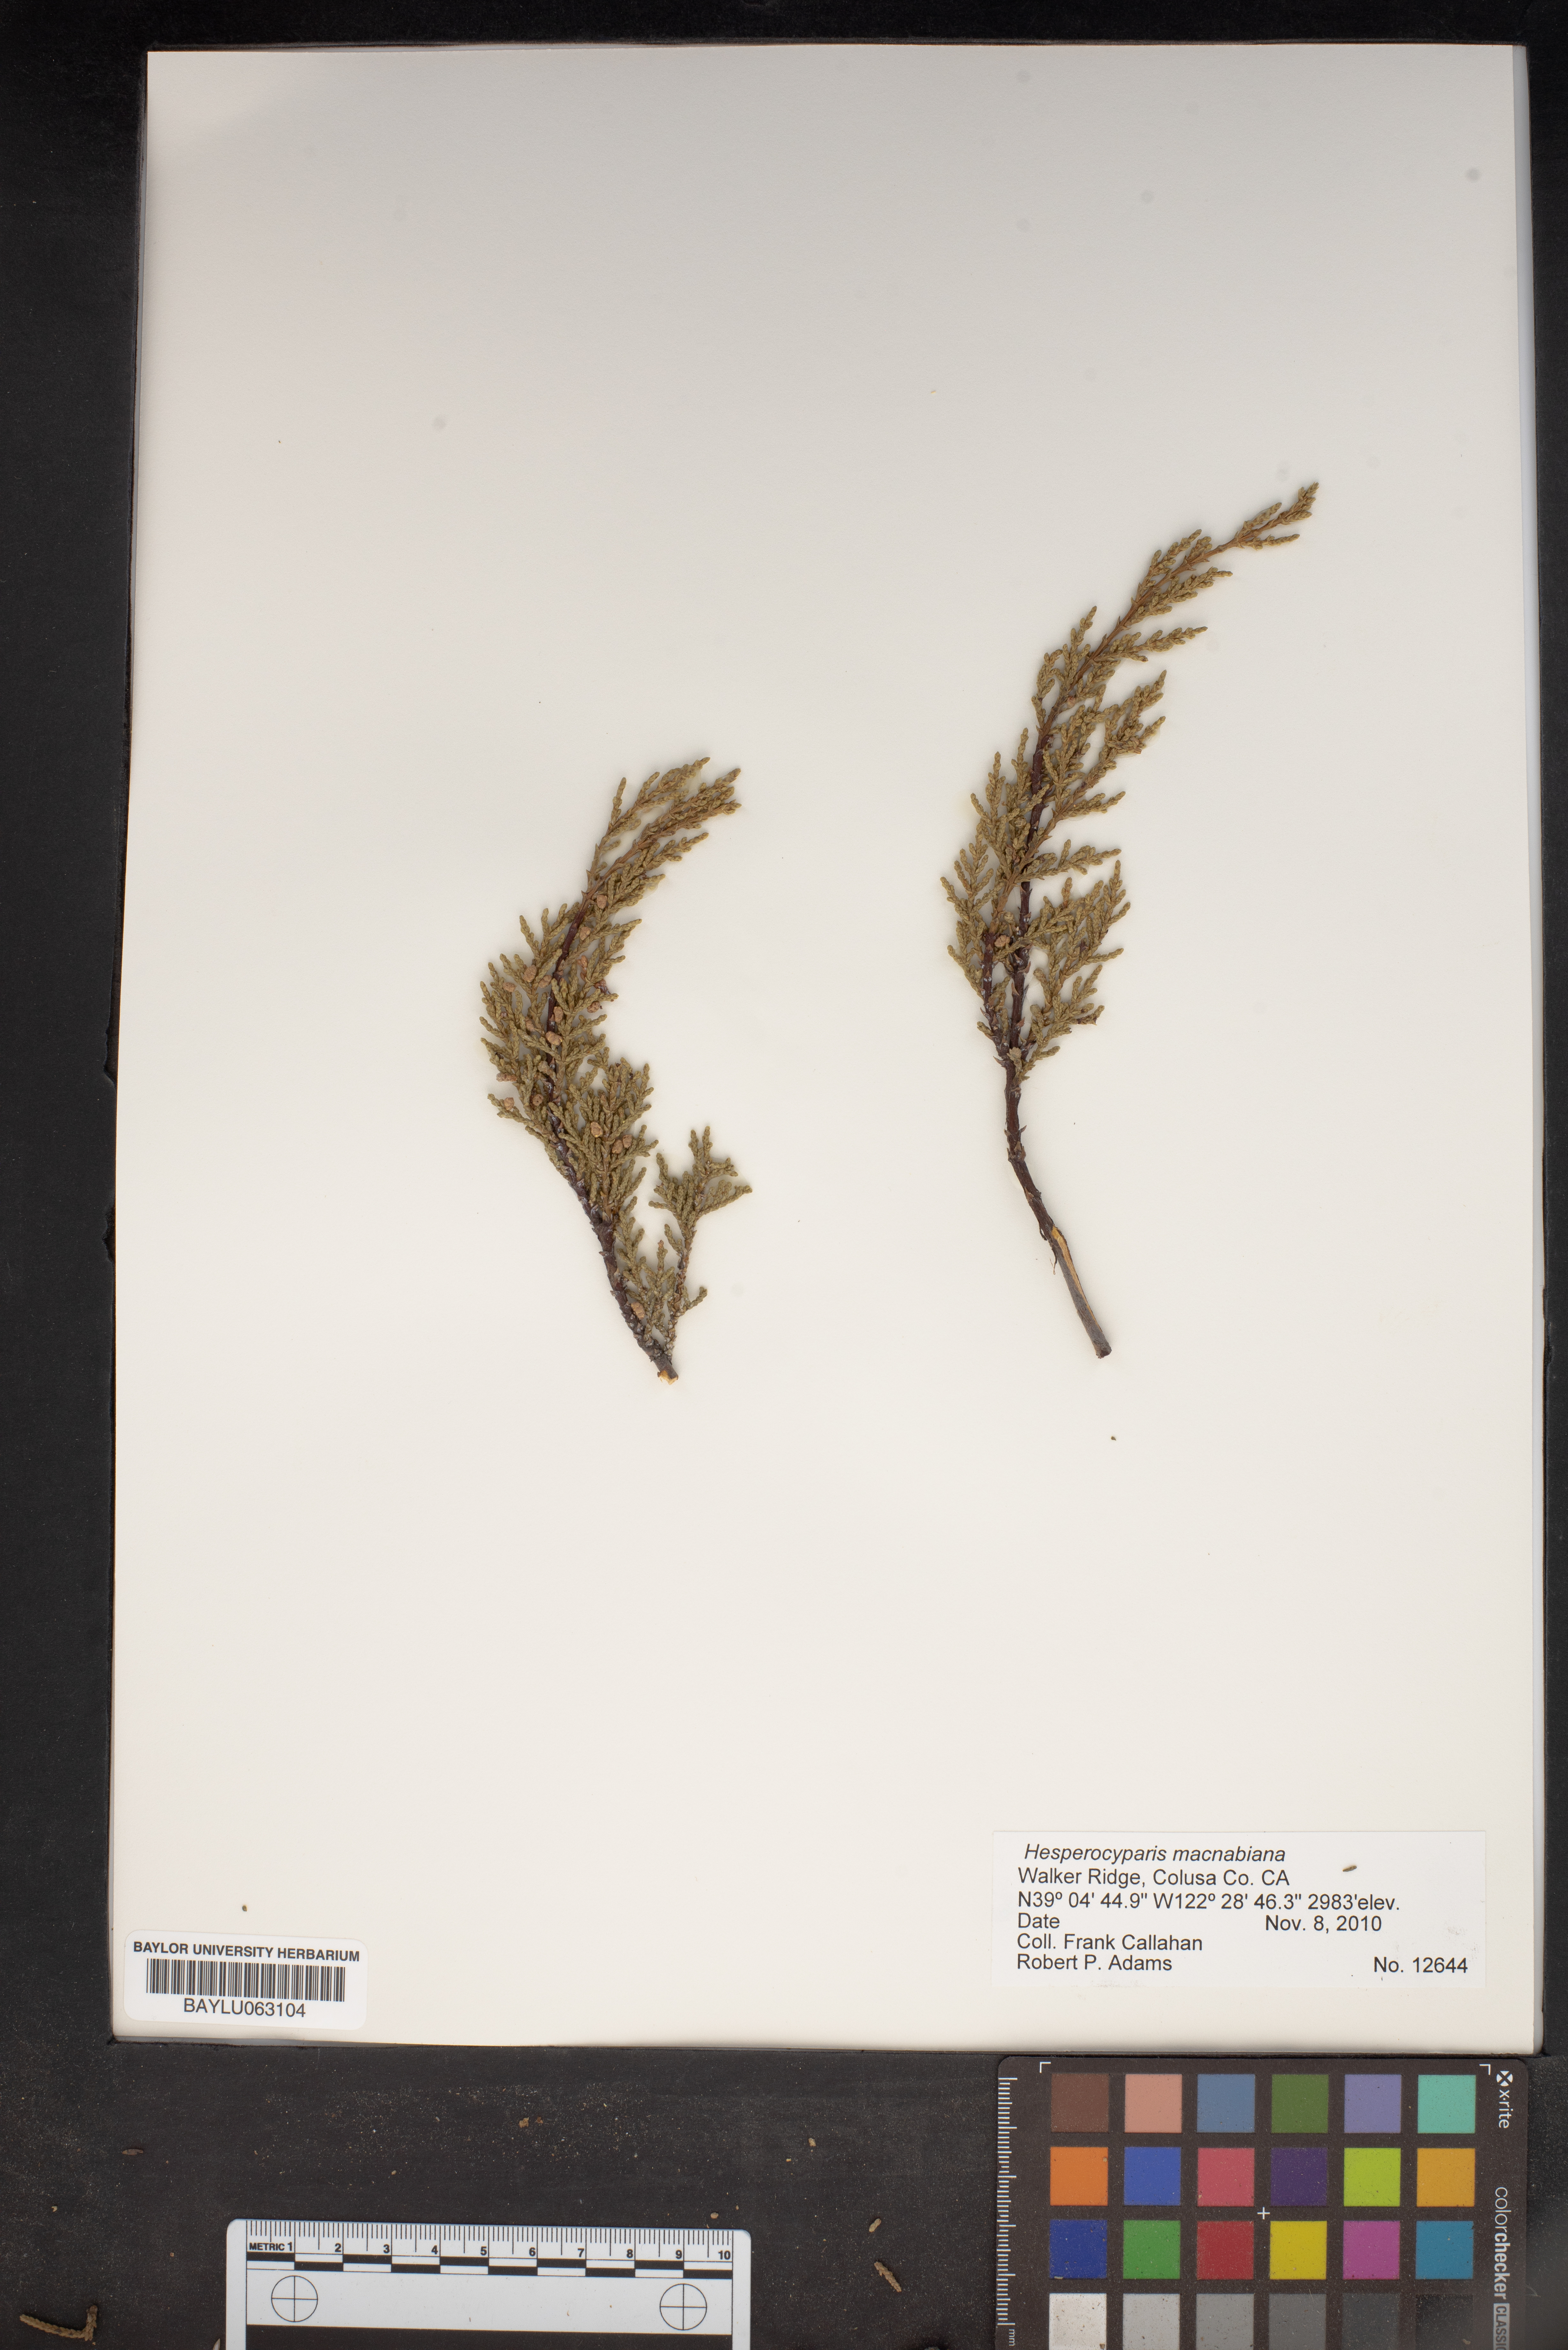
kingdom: Plantae
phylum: Tracheophyta
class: Pinopsida
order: Pinales
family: Cupressaceae
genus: Cupressus
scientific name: Cupressus macnabiana bis
